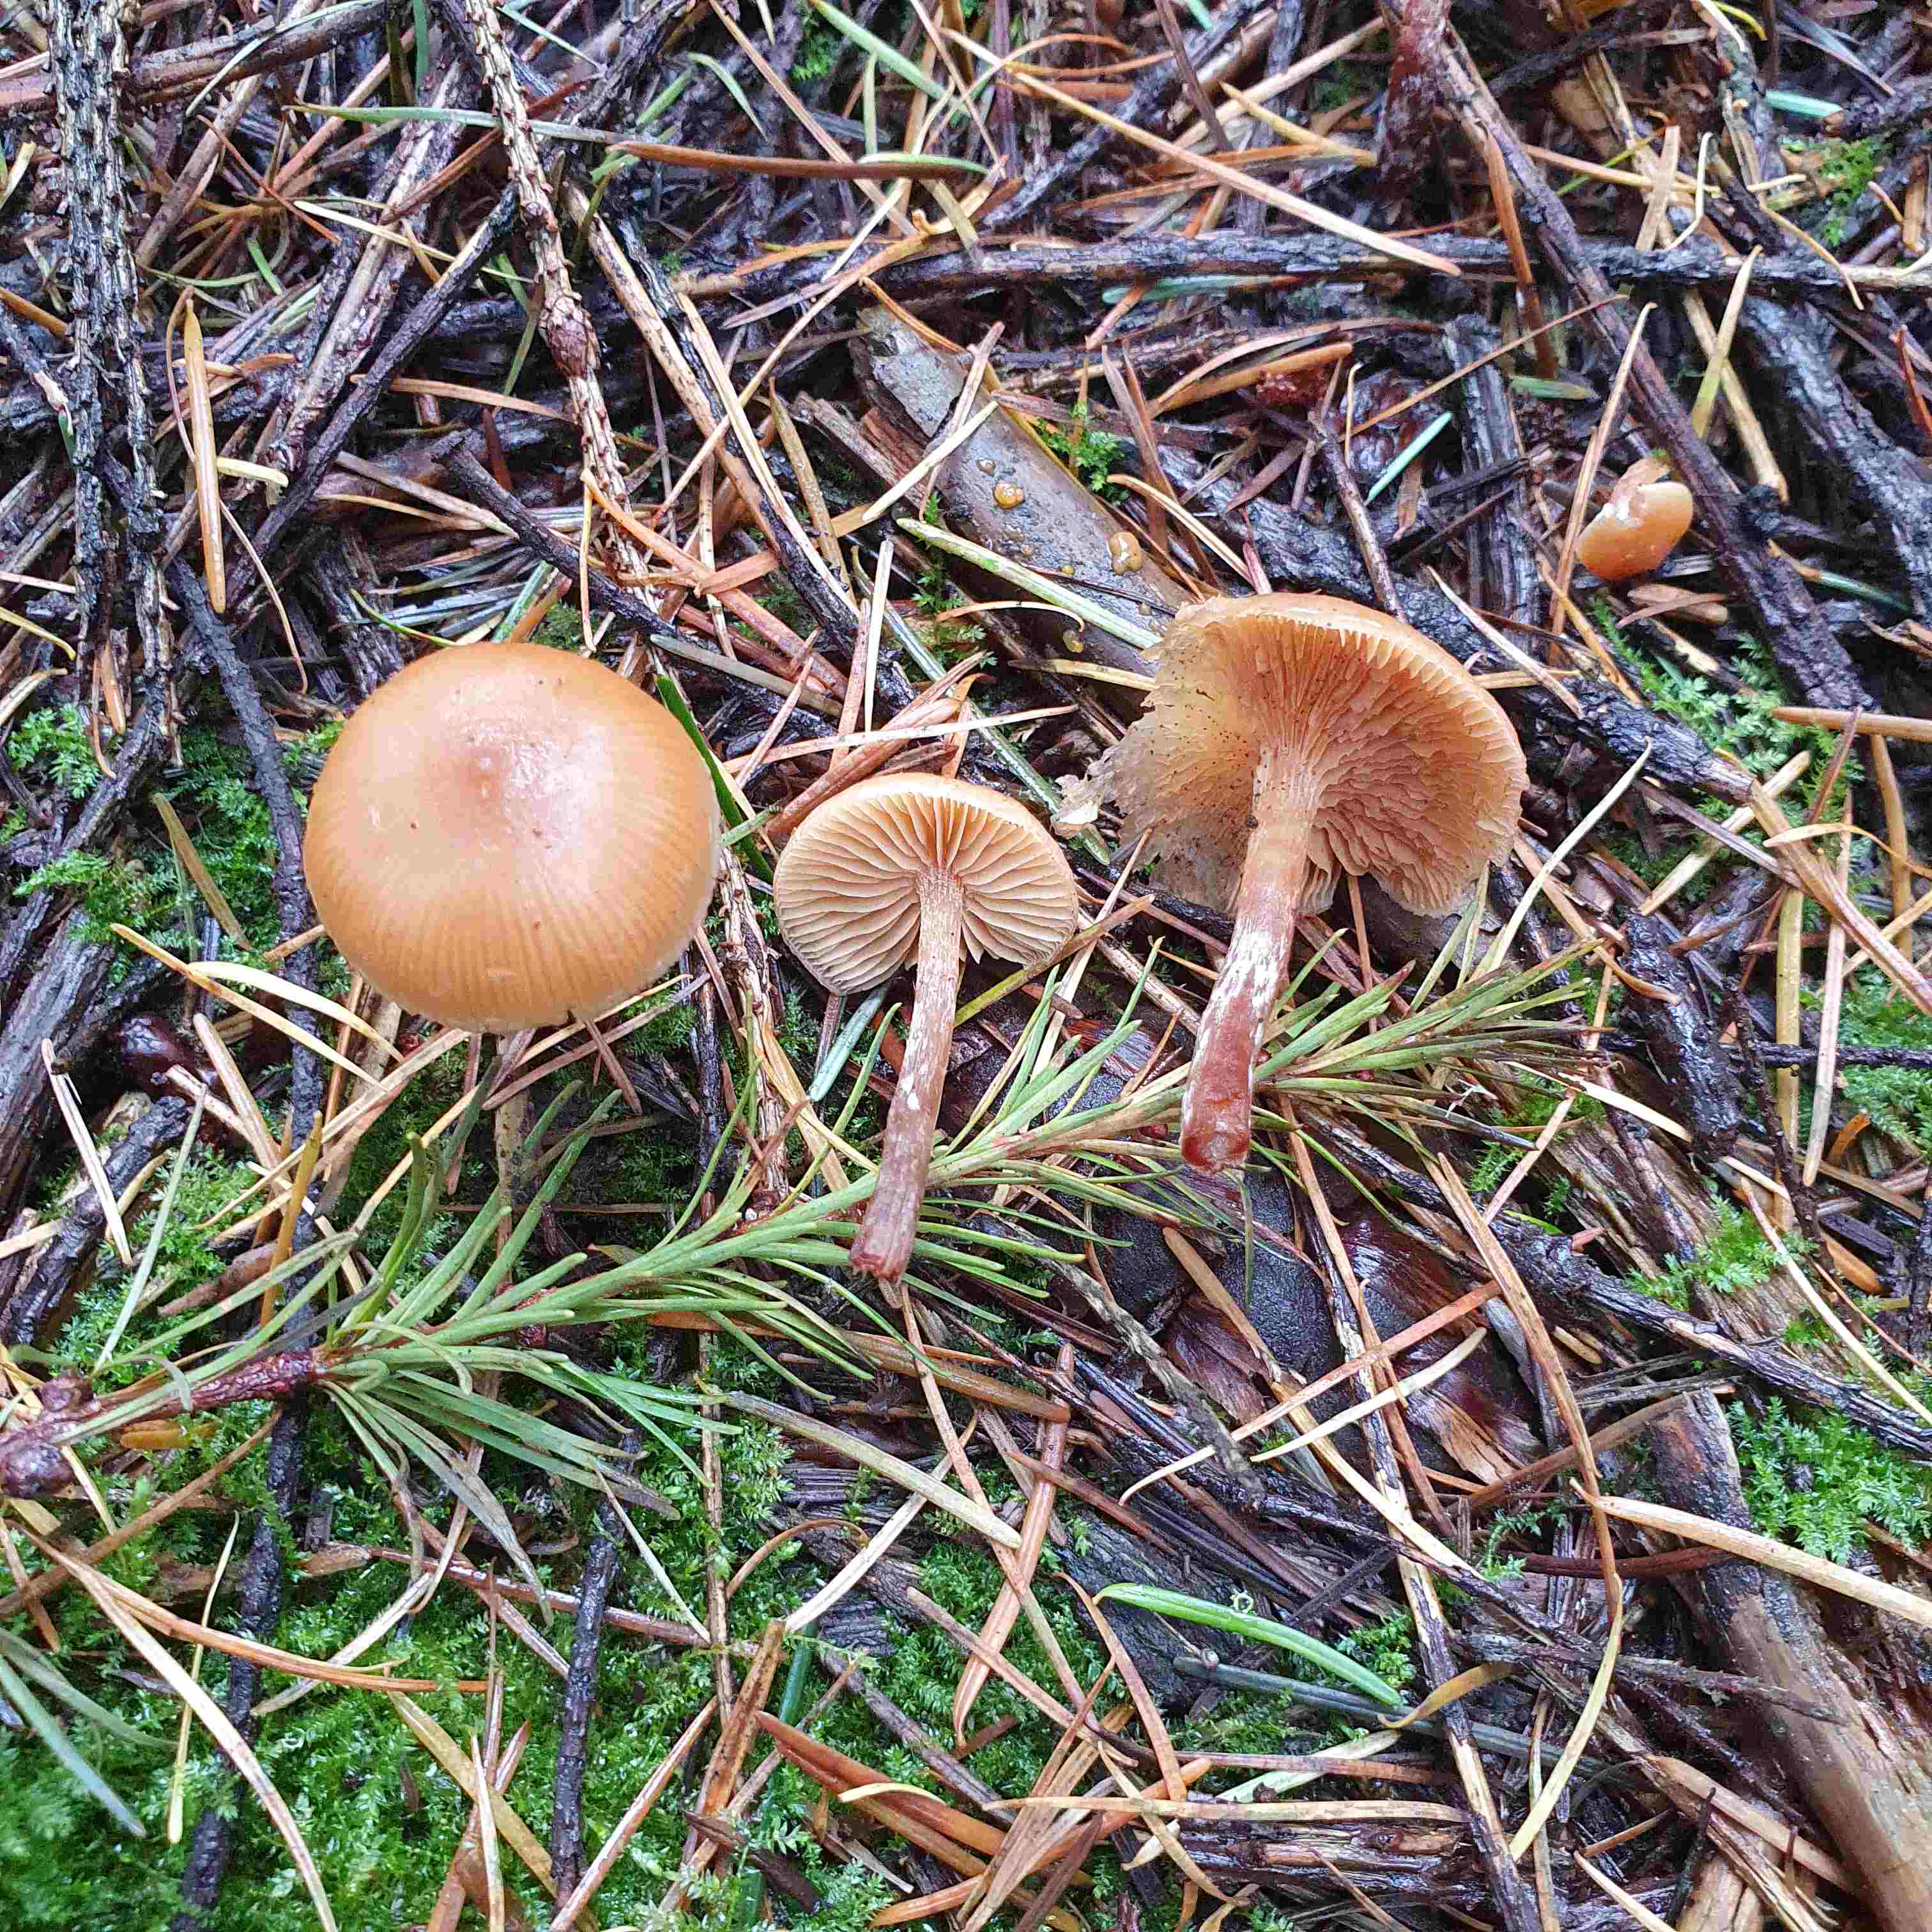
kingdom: Fungi
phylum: Basidiomycota
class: Agaricomycetes
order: Agaricales
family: Hymenogastraceae
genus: Galerina
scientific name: Galerina sideroides
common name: træflis-hjelmhat
